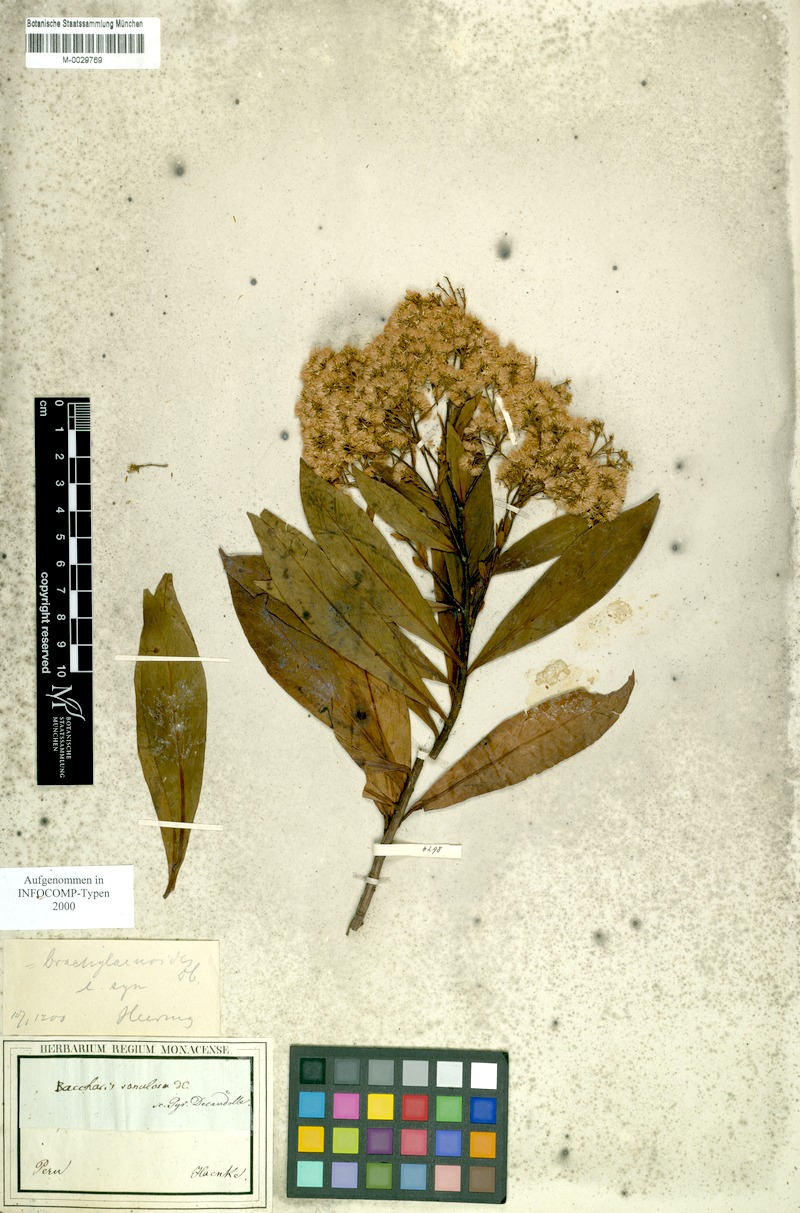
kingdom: Plantae
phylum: Tracheophyta
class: Magnoliopsida
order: Asterales
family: Asteraceae
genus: Baccharis
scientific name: Baccharis oblongifolia
